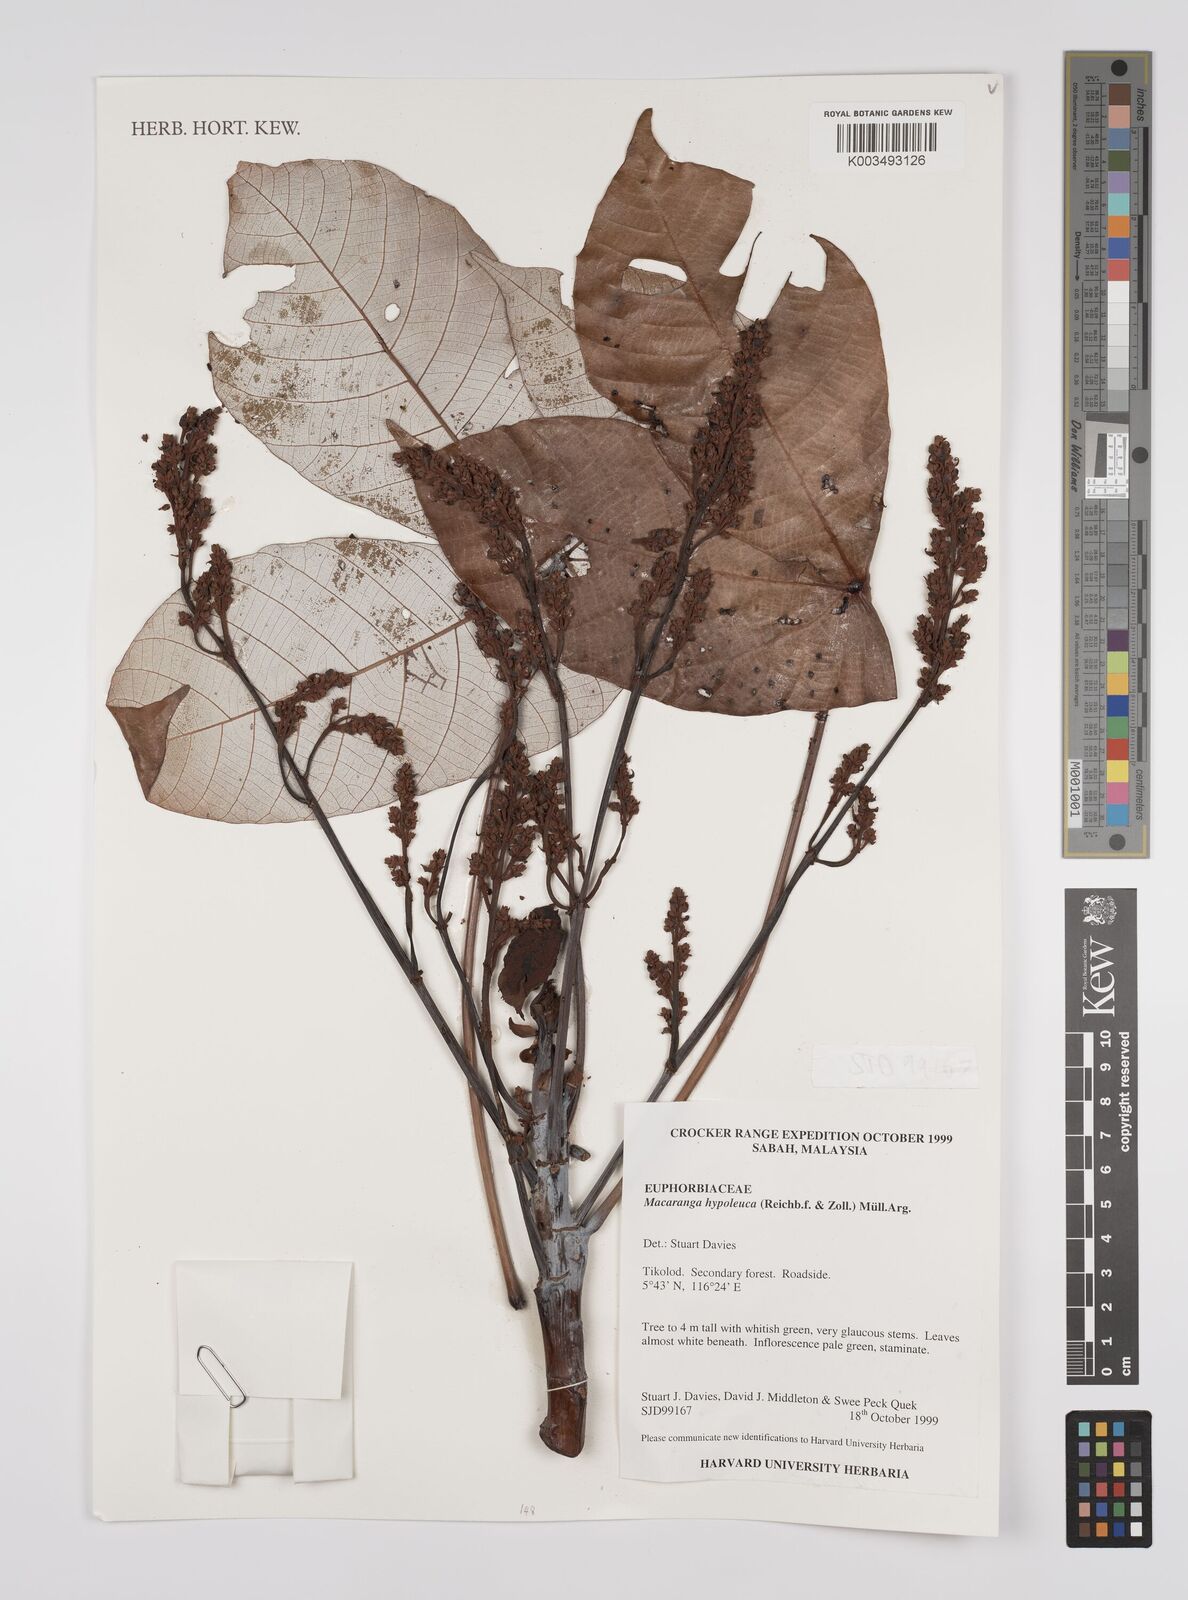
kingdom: Plantae
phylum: Tracheophyta
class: Magnoliopsida
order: Malpighiales
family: Euphorbiaceae
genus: Macaranga
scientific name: Macaranga hypoleuca
